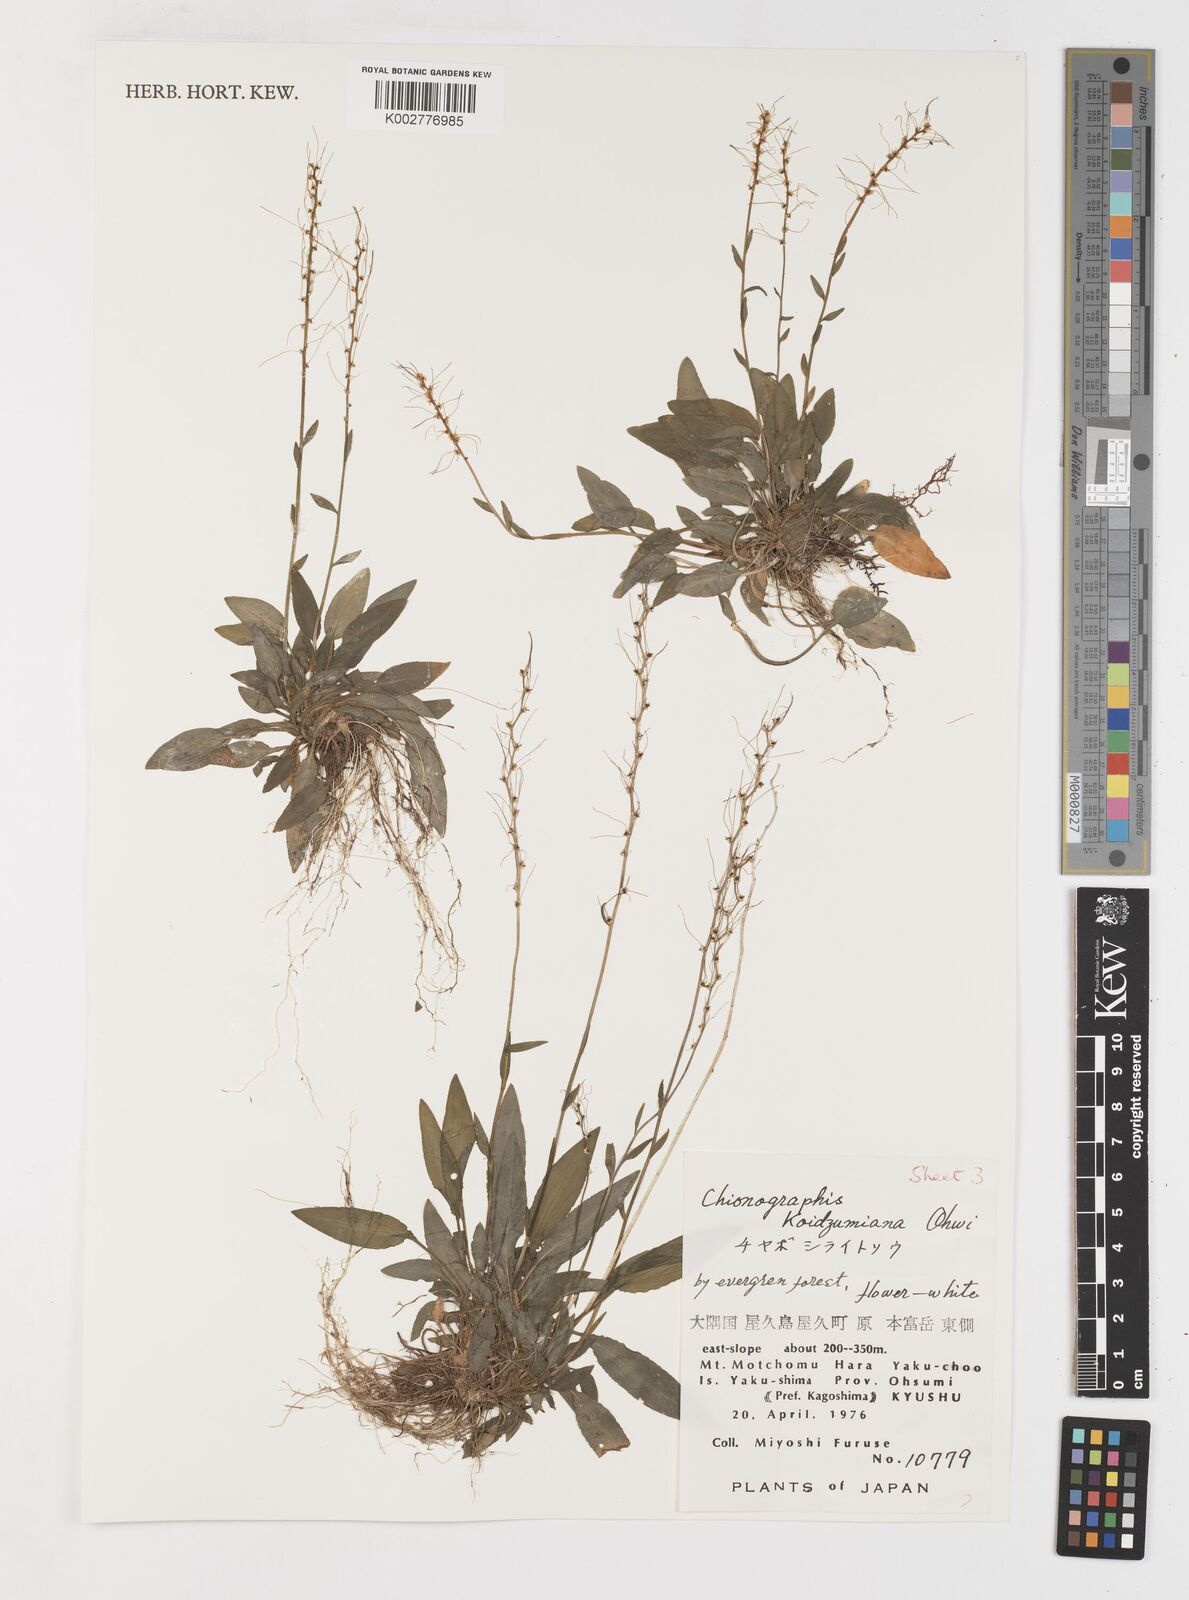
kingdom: Plantae
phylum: Tracheophyta
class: Liliopsida
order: Liliales
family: Melanthiaceae
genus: Chamaelirium
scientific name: Chamaelirium koidzumianum
